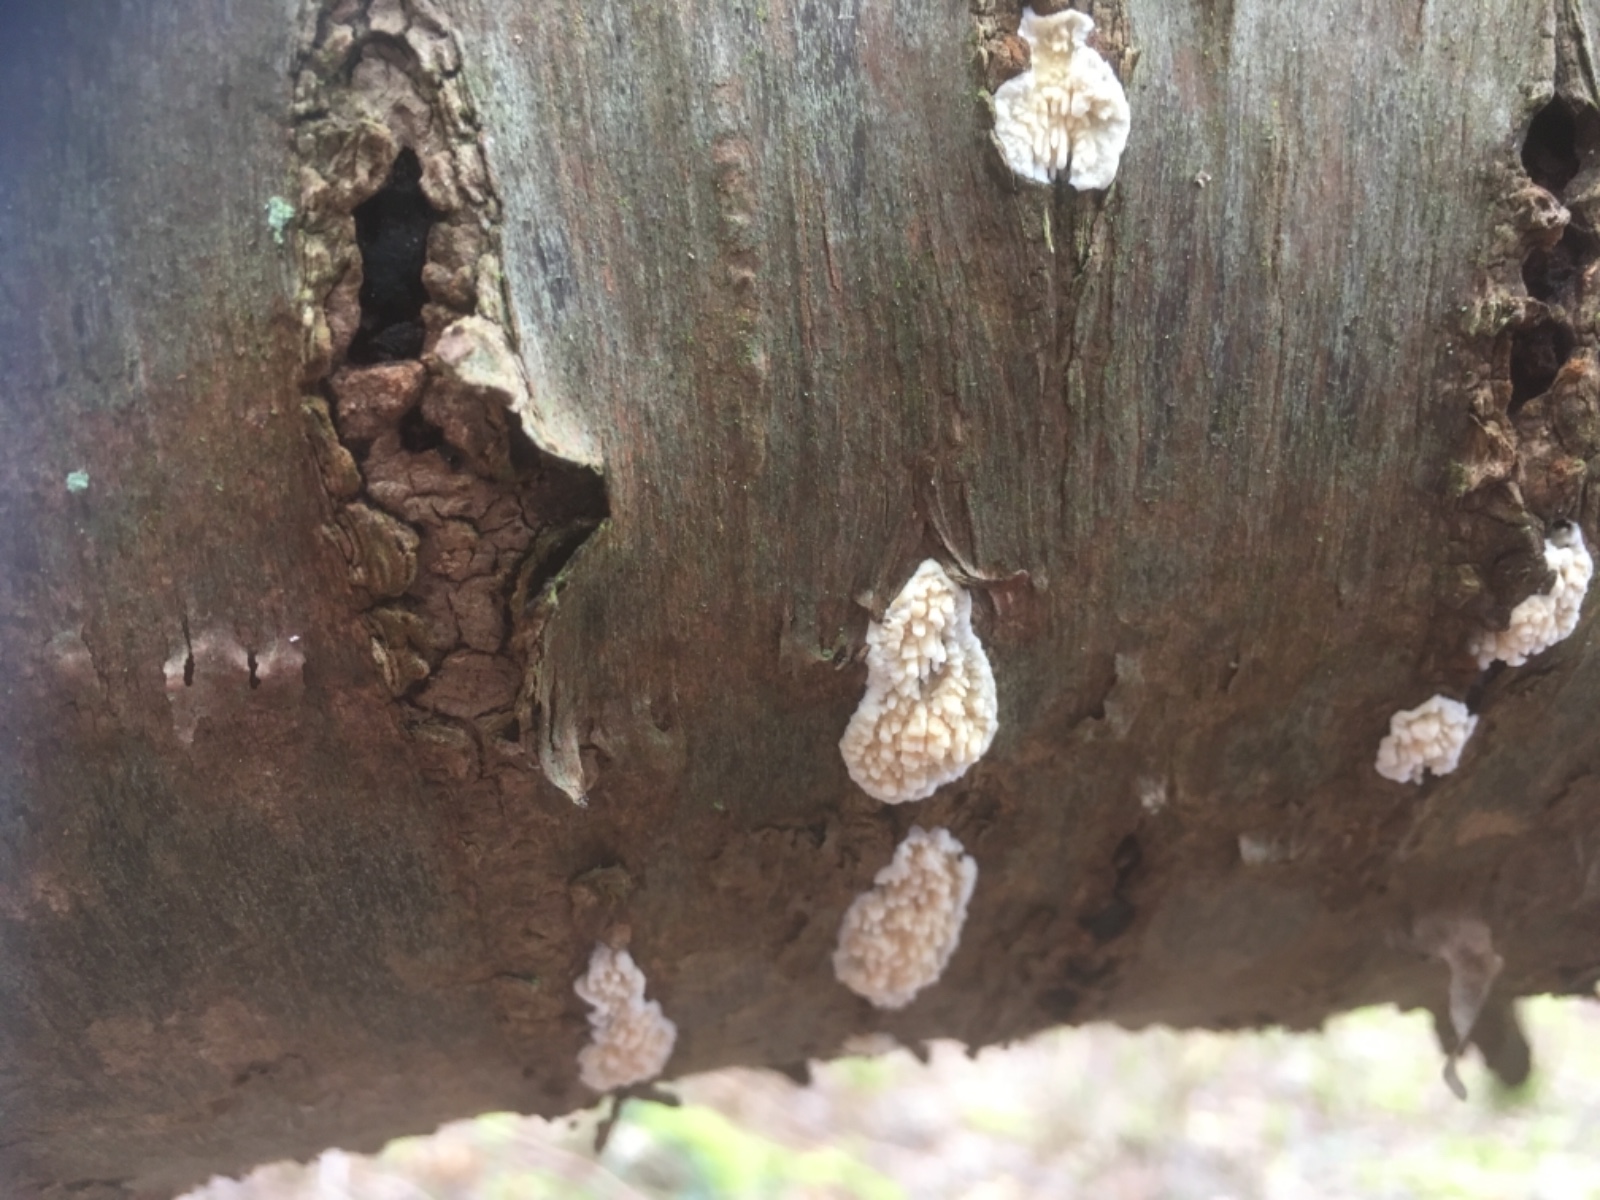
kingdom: Fungi
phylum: Basidiomycota
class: Agaricomycetes
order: Hymenochaetales
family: Schizoporaceae
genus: Xylodon
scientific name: Xylodon radula
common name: grovtandet kalkskind
